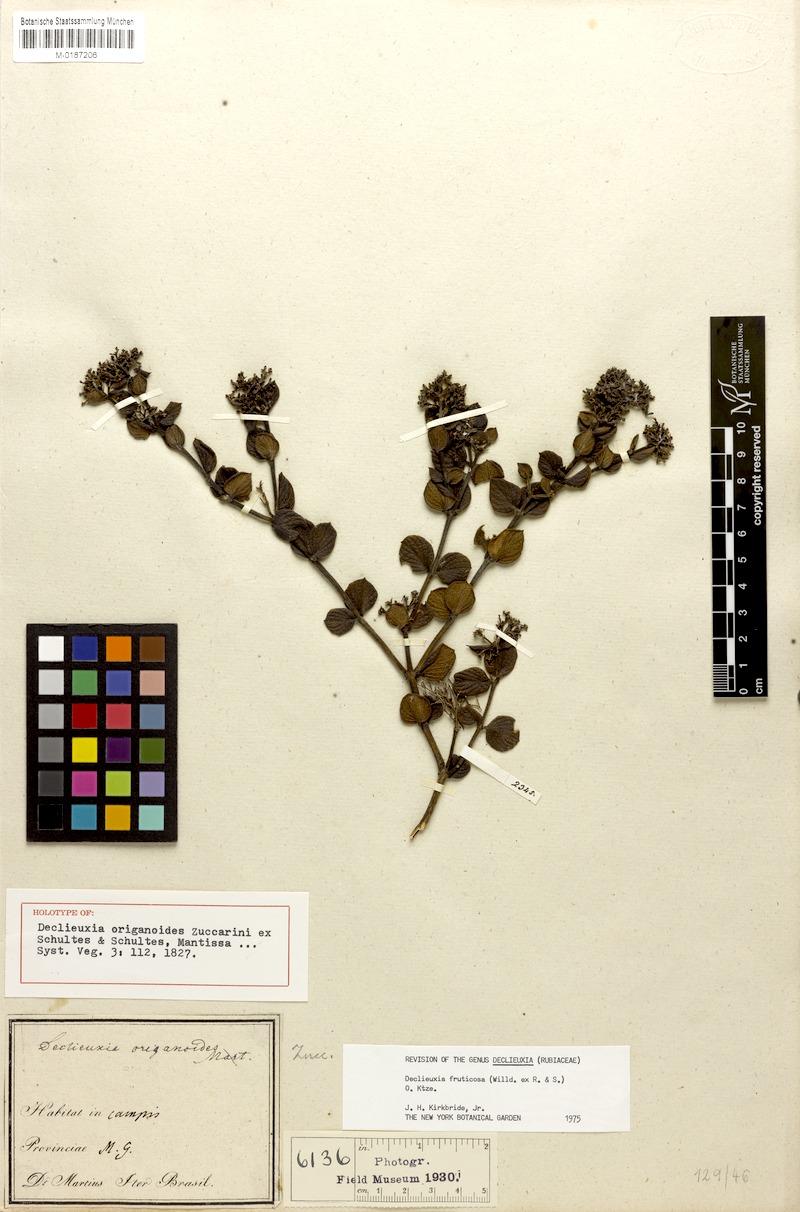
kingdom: Plantae
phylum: Tracheophyta
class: Magnoliopsida
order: Gentianales
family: Rubiaceae
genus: Declieuxia
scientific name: Declieuxia fruticosa
